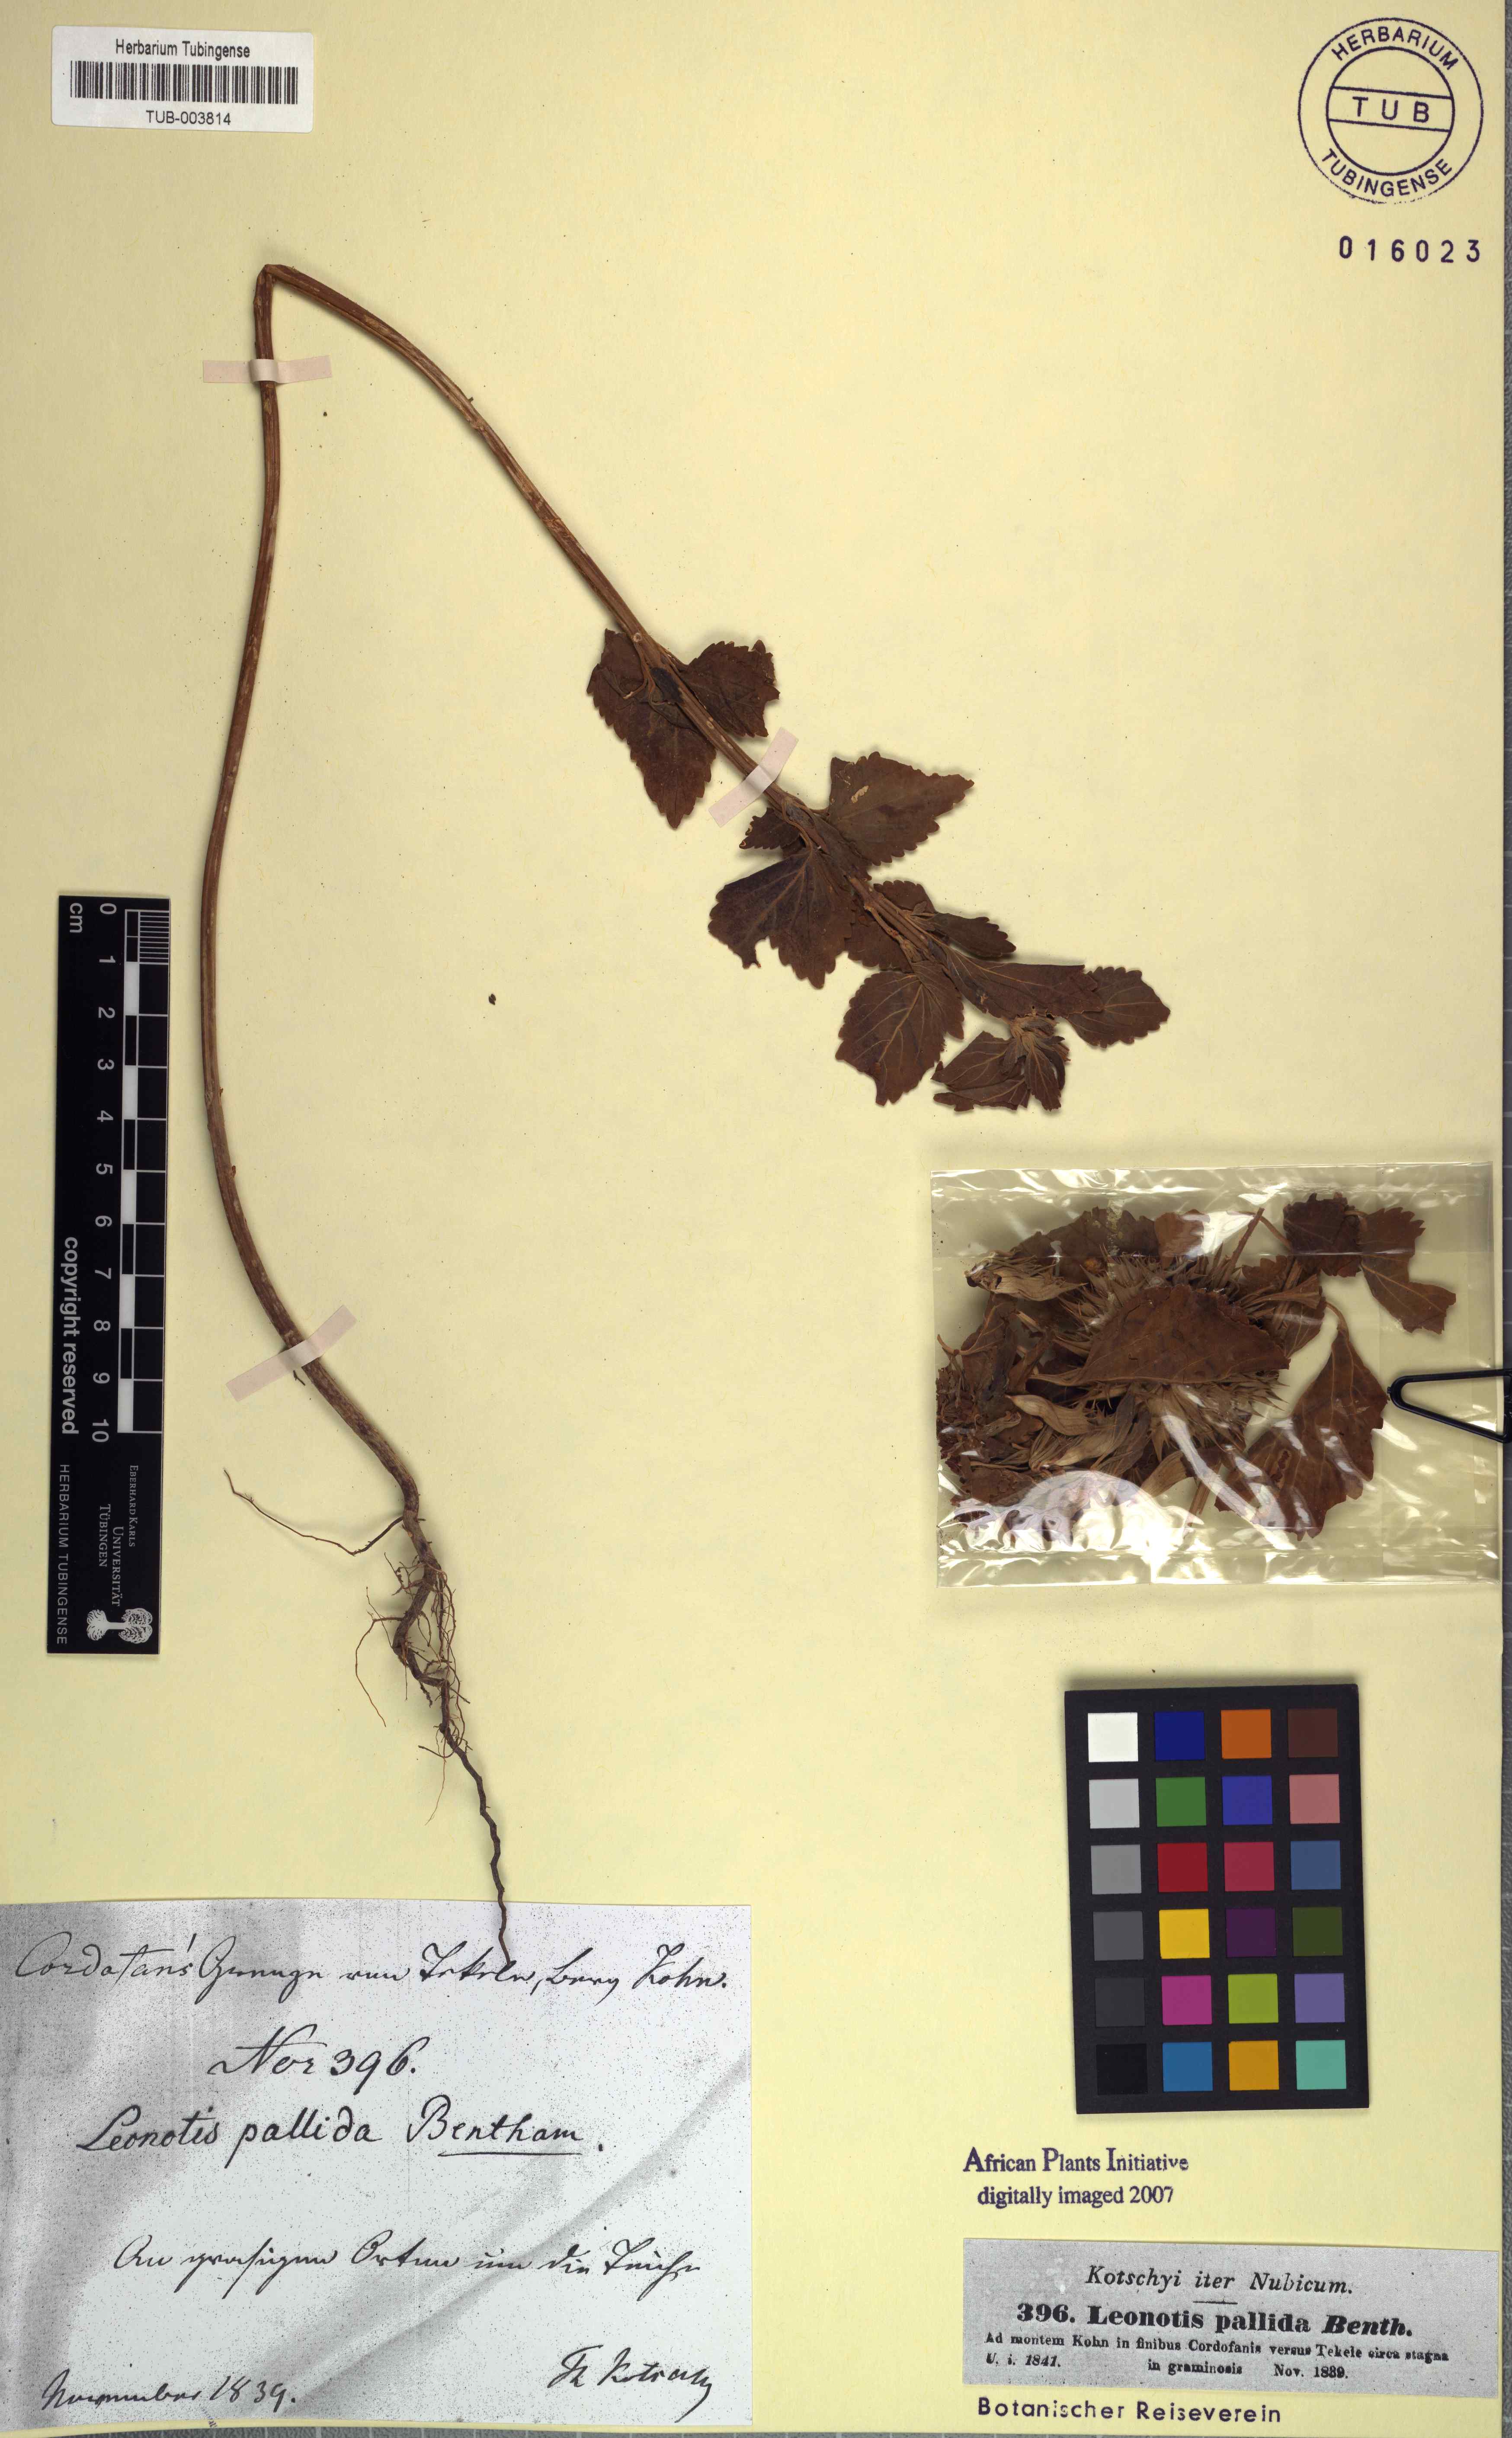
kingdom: Plantae
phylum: Tracheophyta
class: Magnoliopsida
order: Lamiales
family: Lamiaceae
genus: Leonotis
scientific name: Leonotis nepetifolia
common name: Christmas candlestick
